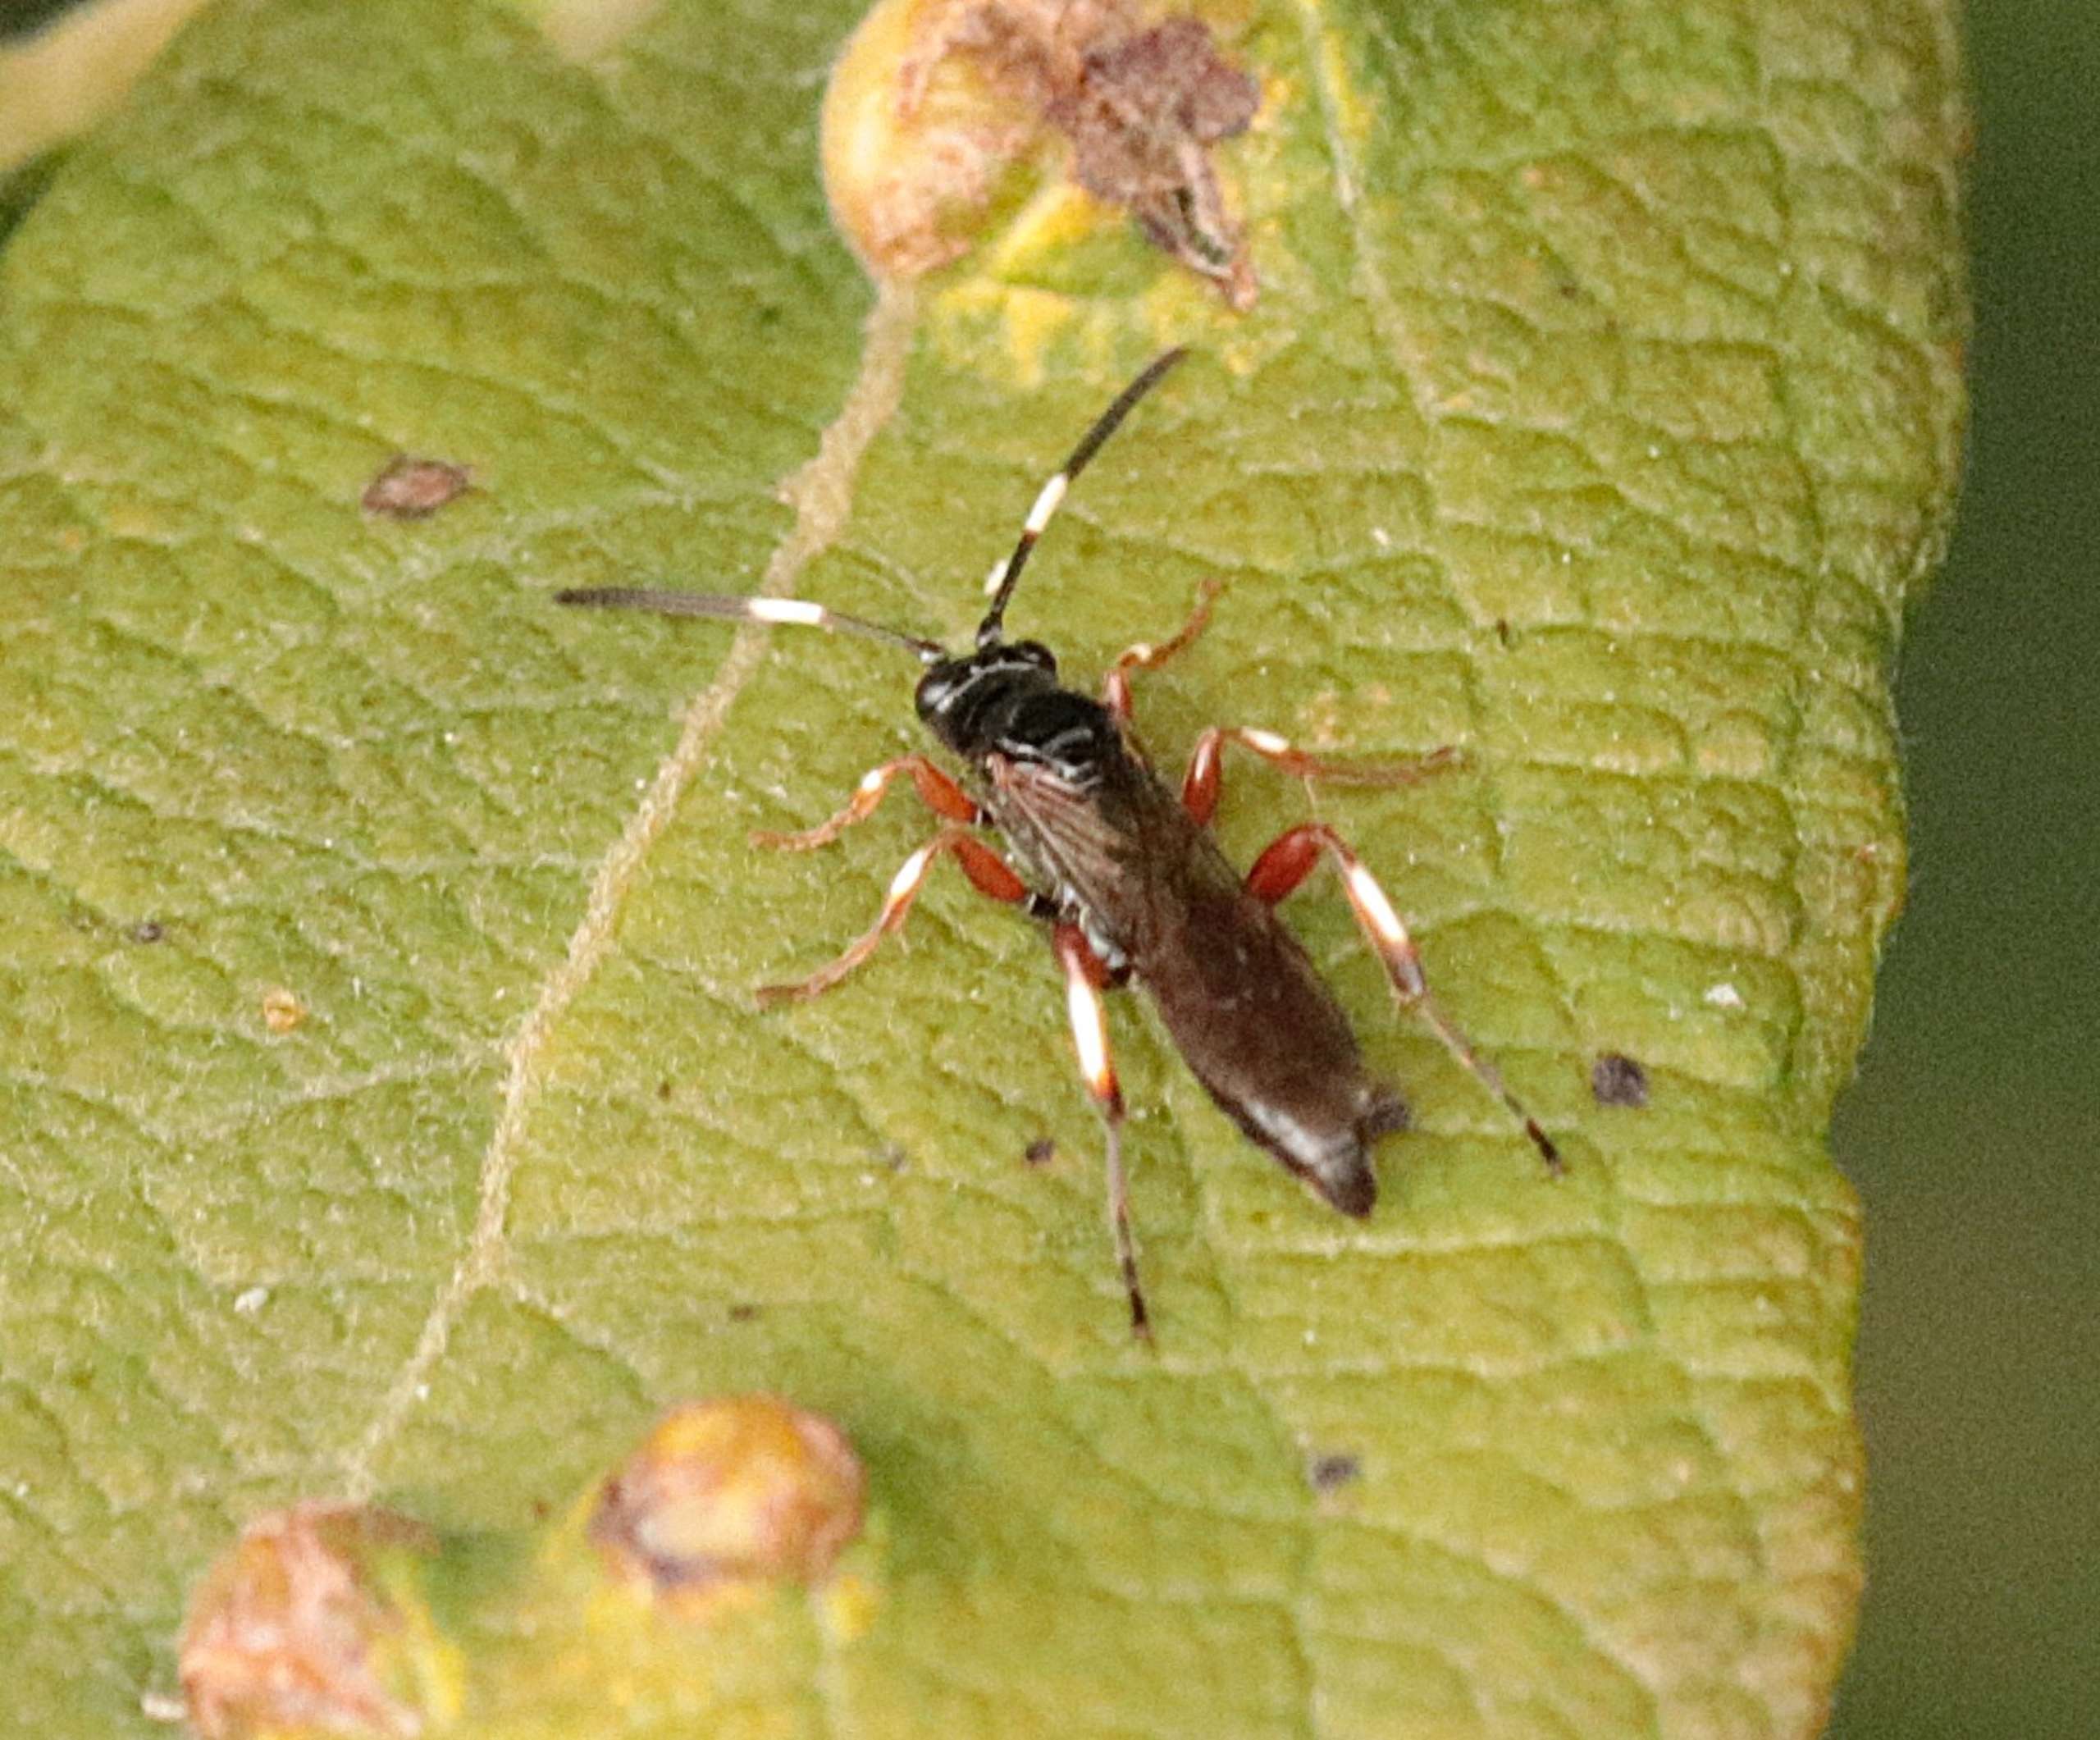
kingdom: Animalia
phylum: Arthropoda
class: Insecta
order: Hymenoptera
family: Ichneumonidae
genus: Cratichneumon
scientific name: Cratichneumon
